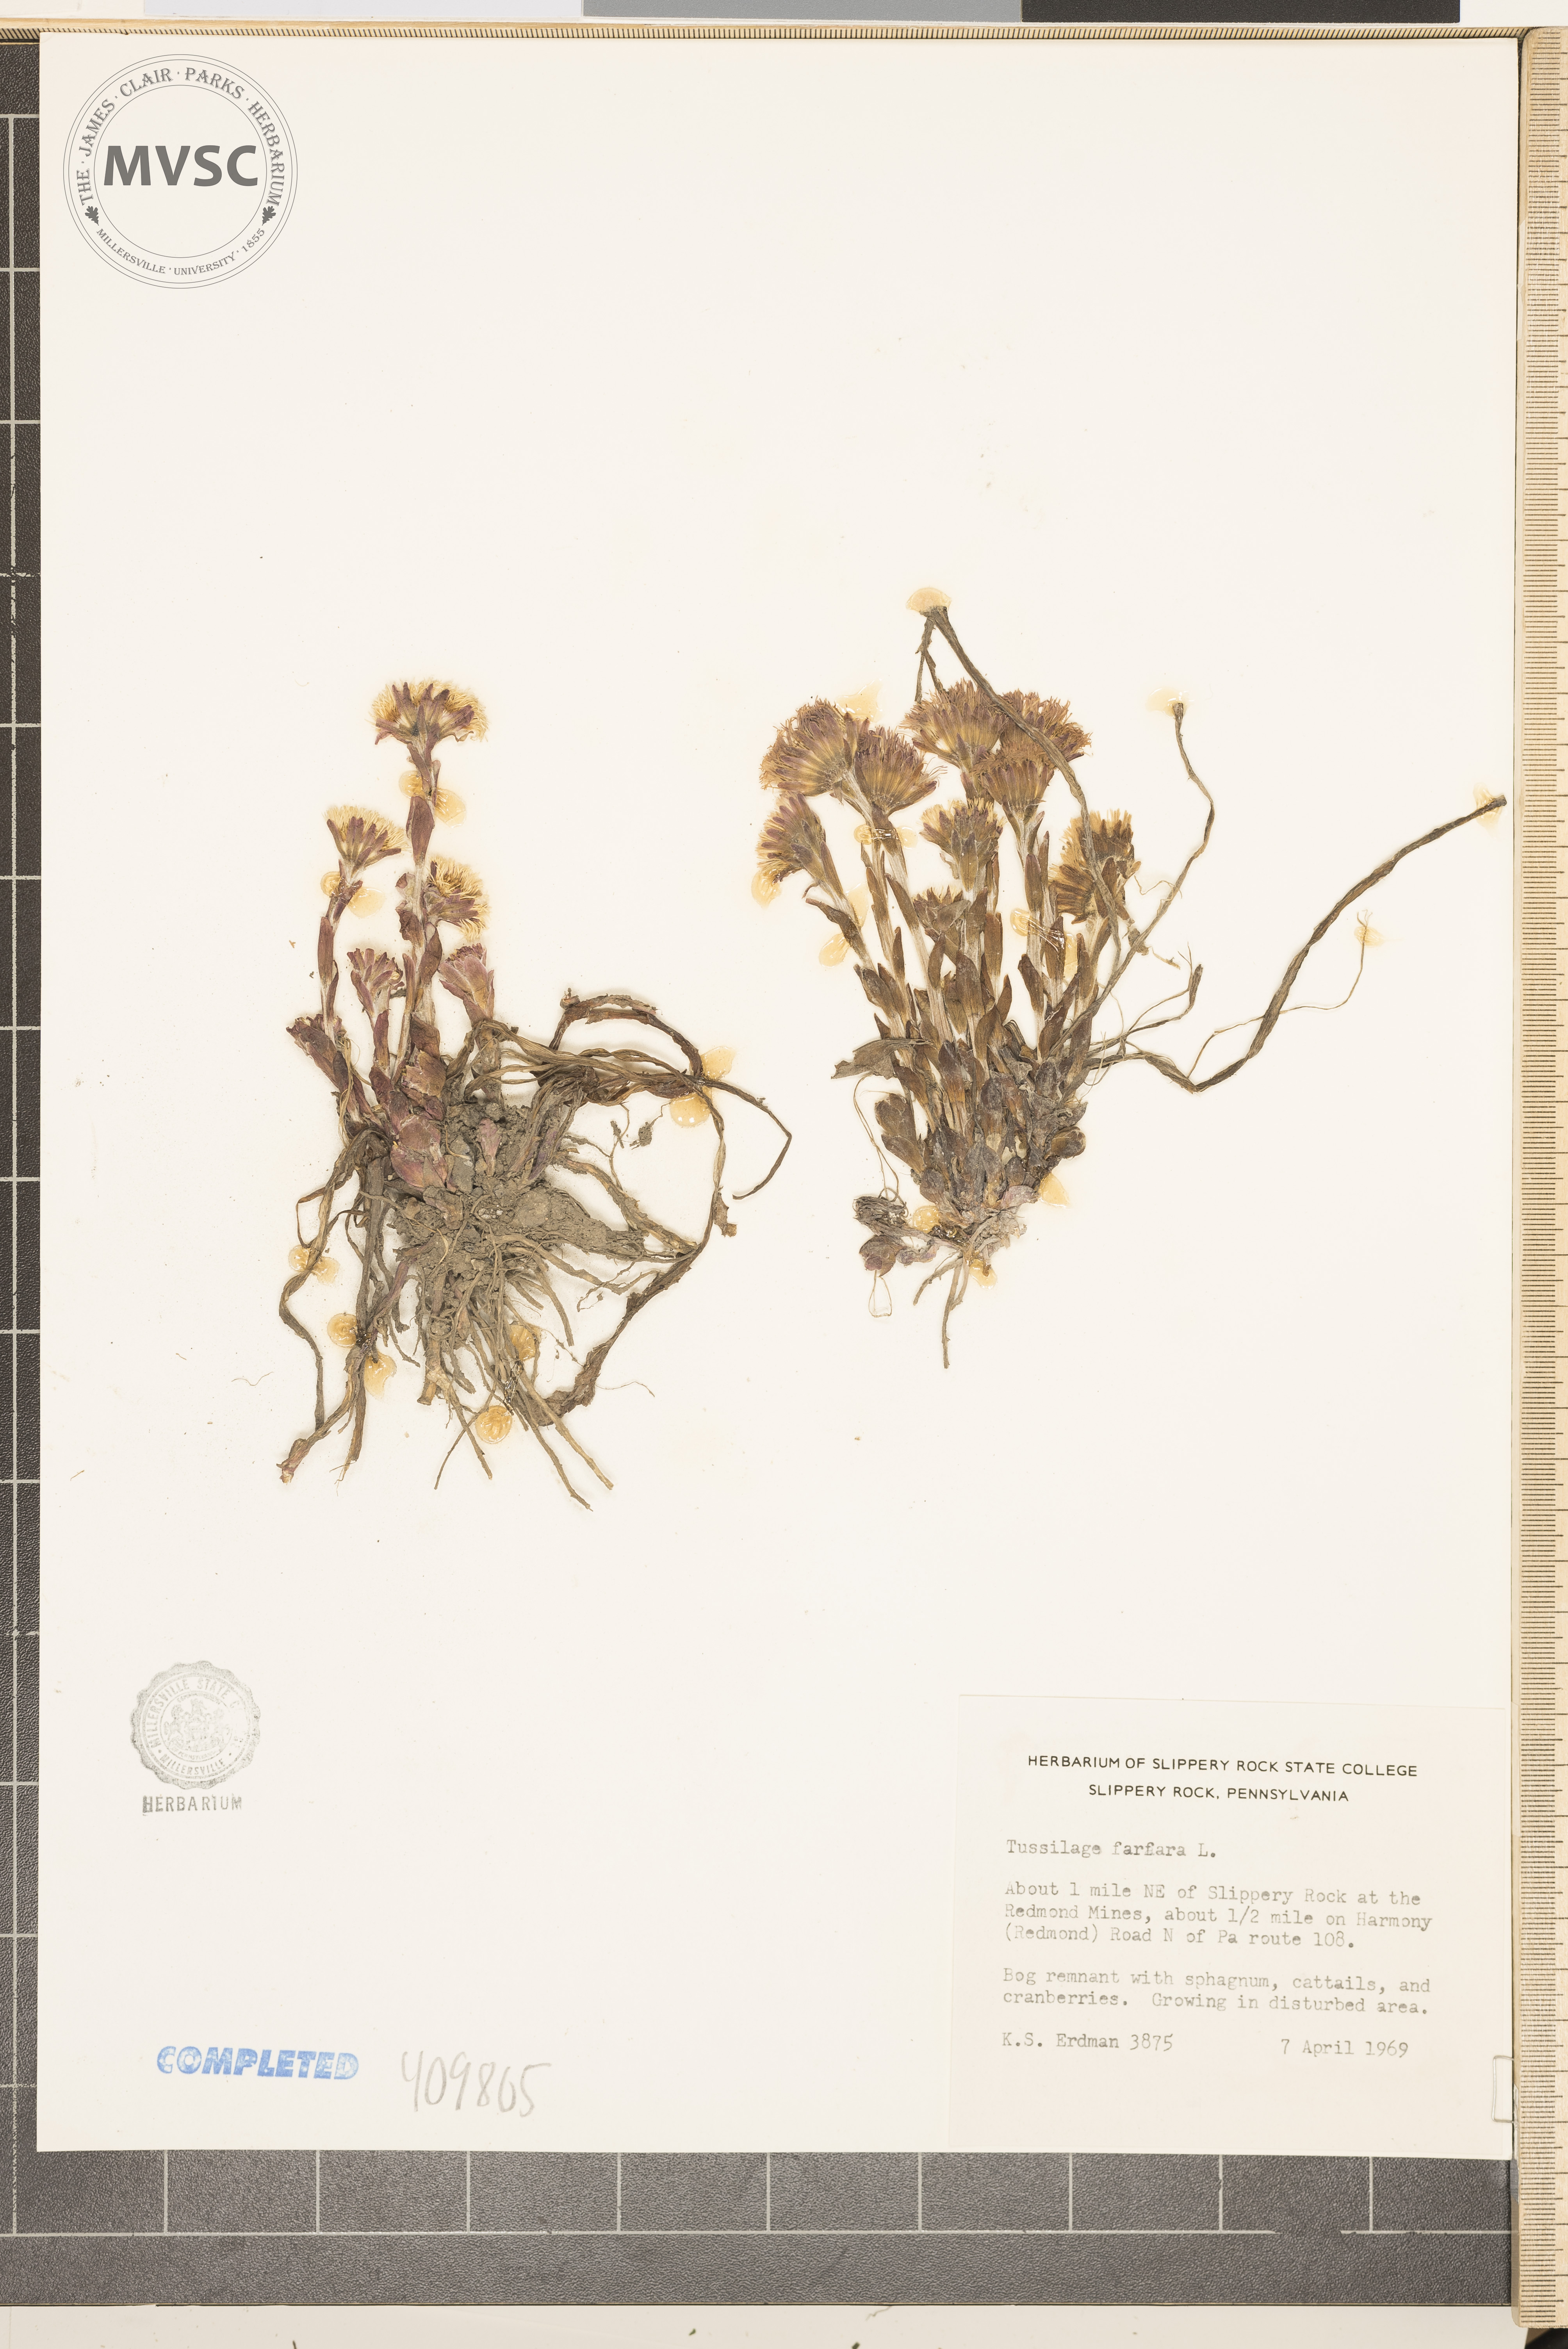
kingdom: Plantae
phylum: Tracheophyta
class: Magnoliopsida
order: Asterales
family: Asteraceae
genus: Tussilago
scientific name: Tussilago farfara
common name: Coltsfoot
